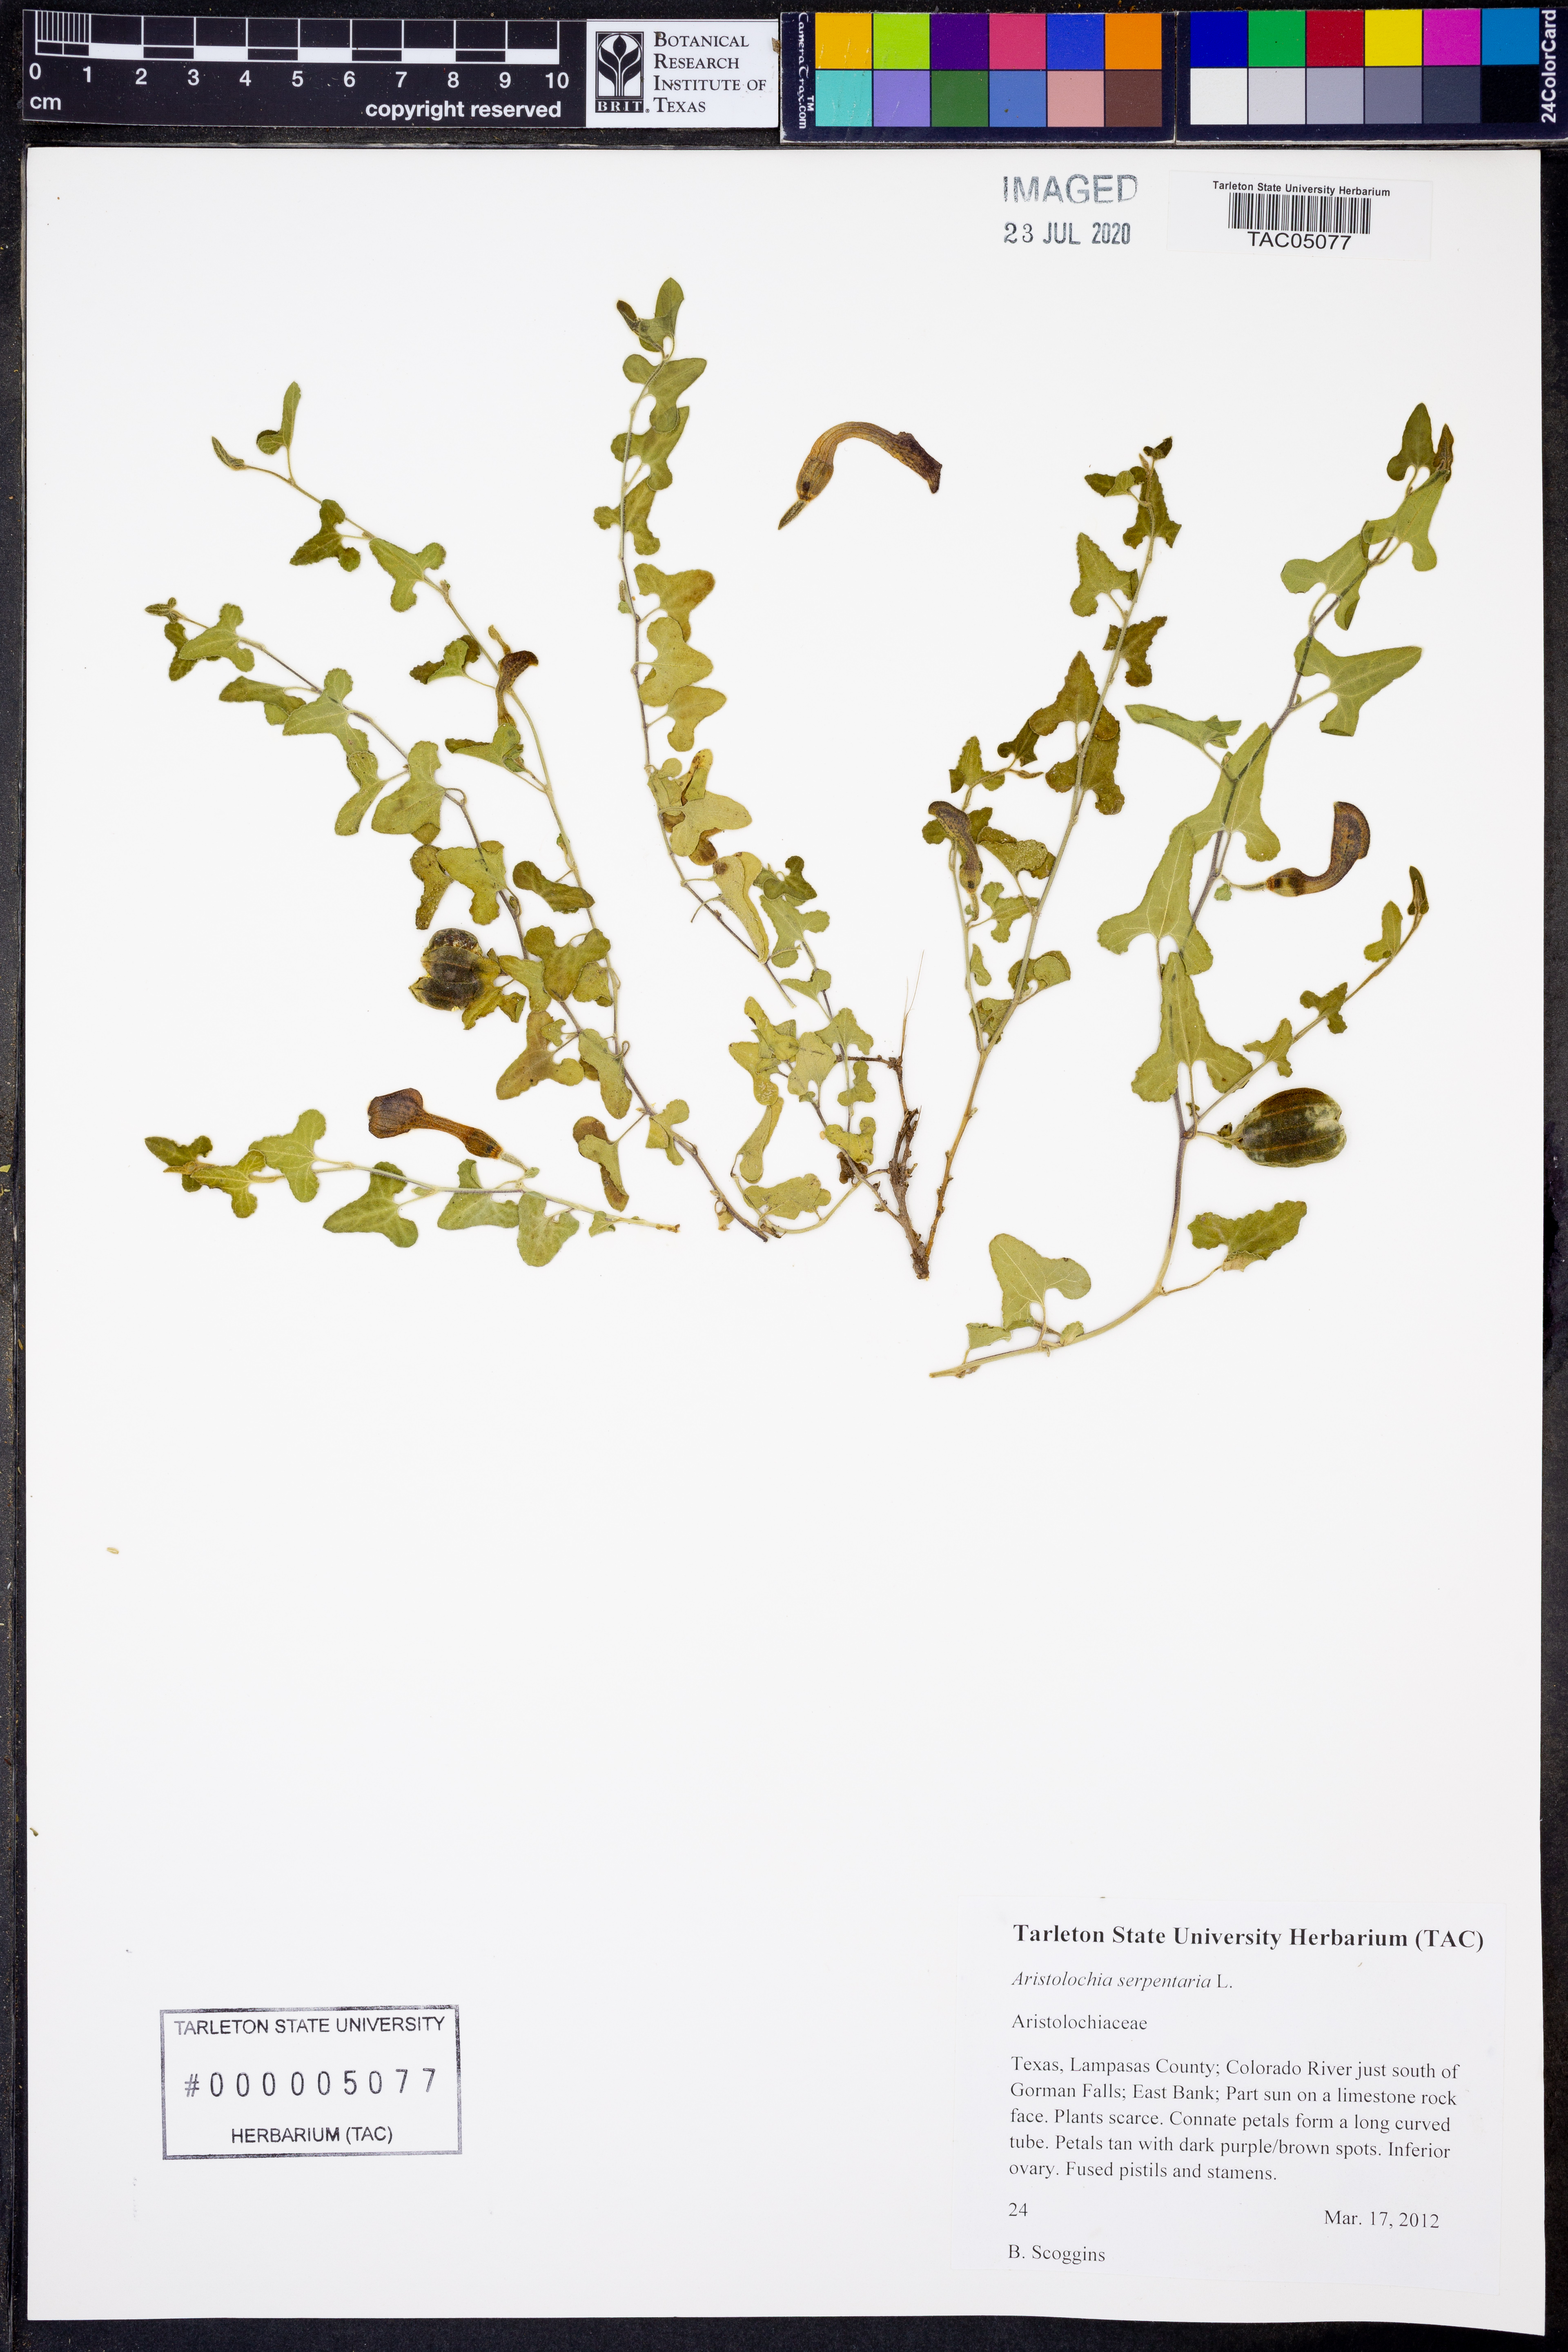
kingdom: Plantae
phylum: Tracheophyta
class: Magnoliopsida
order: Piperales
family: Aristolochiaceae
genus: Endodeca
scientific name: Endodeca serpentaria
